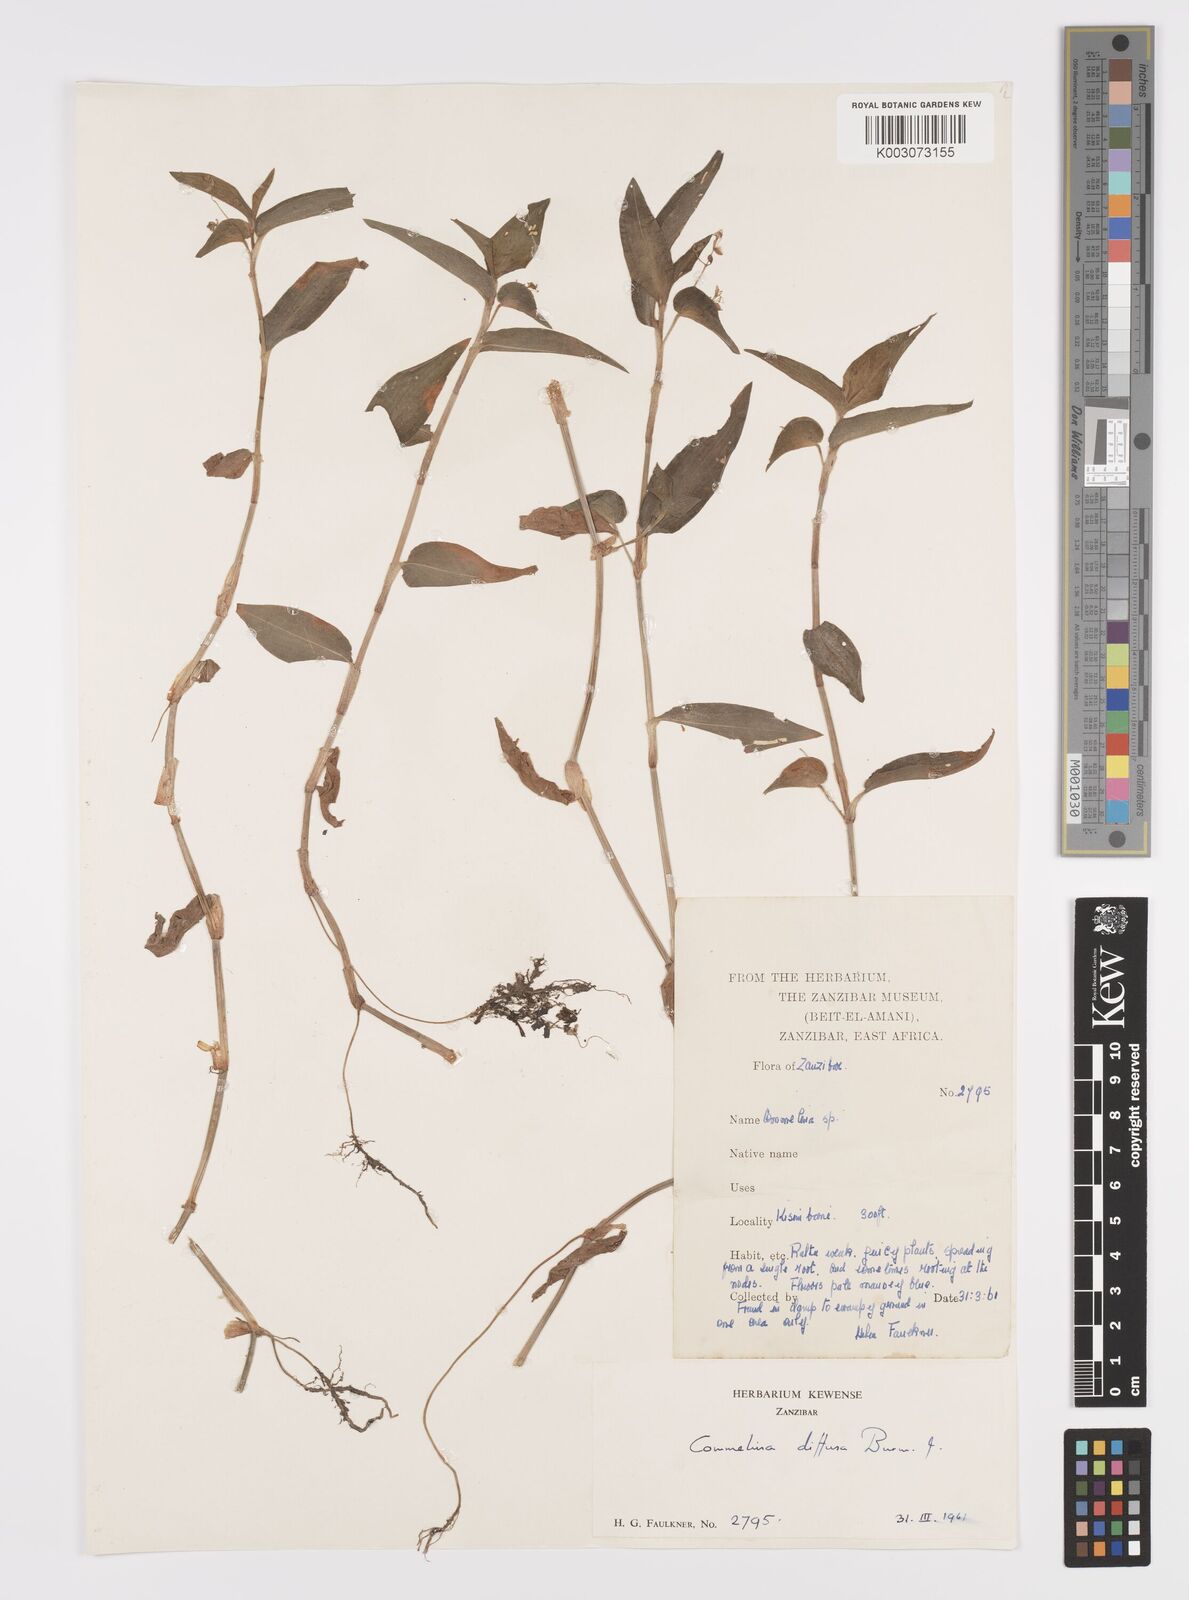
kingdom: Plantae
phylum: Tracheophyta
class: Liliopsida
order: Commelinales
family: Commelinaceae
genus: Commelina
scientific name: Commelina diffusa
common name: Climbing dayflower
